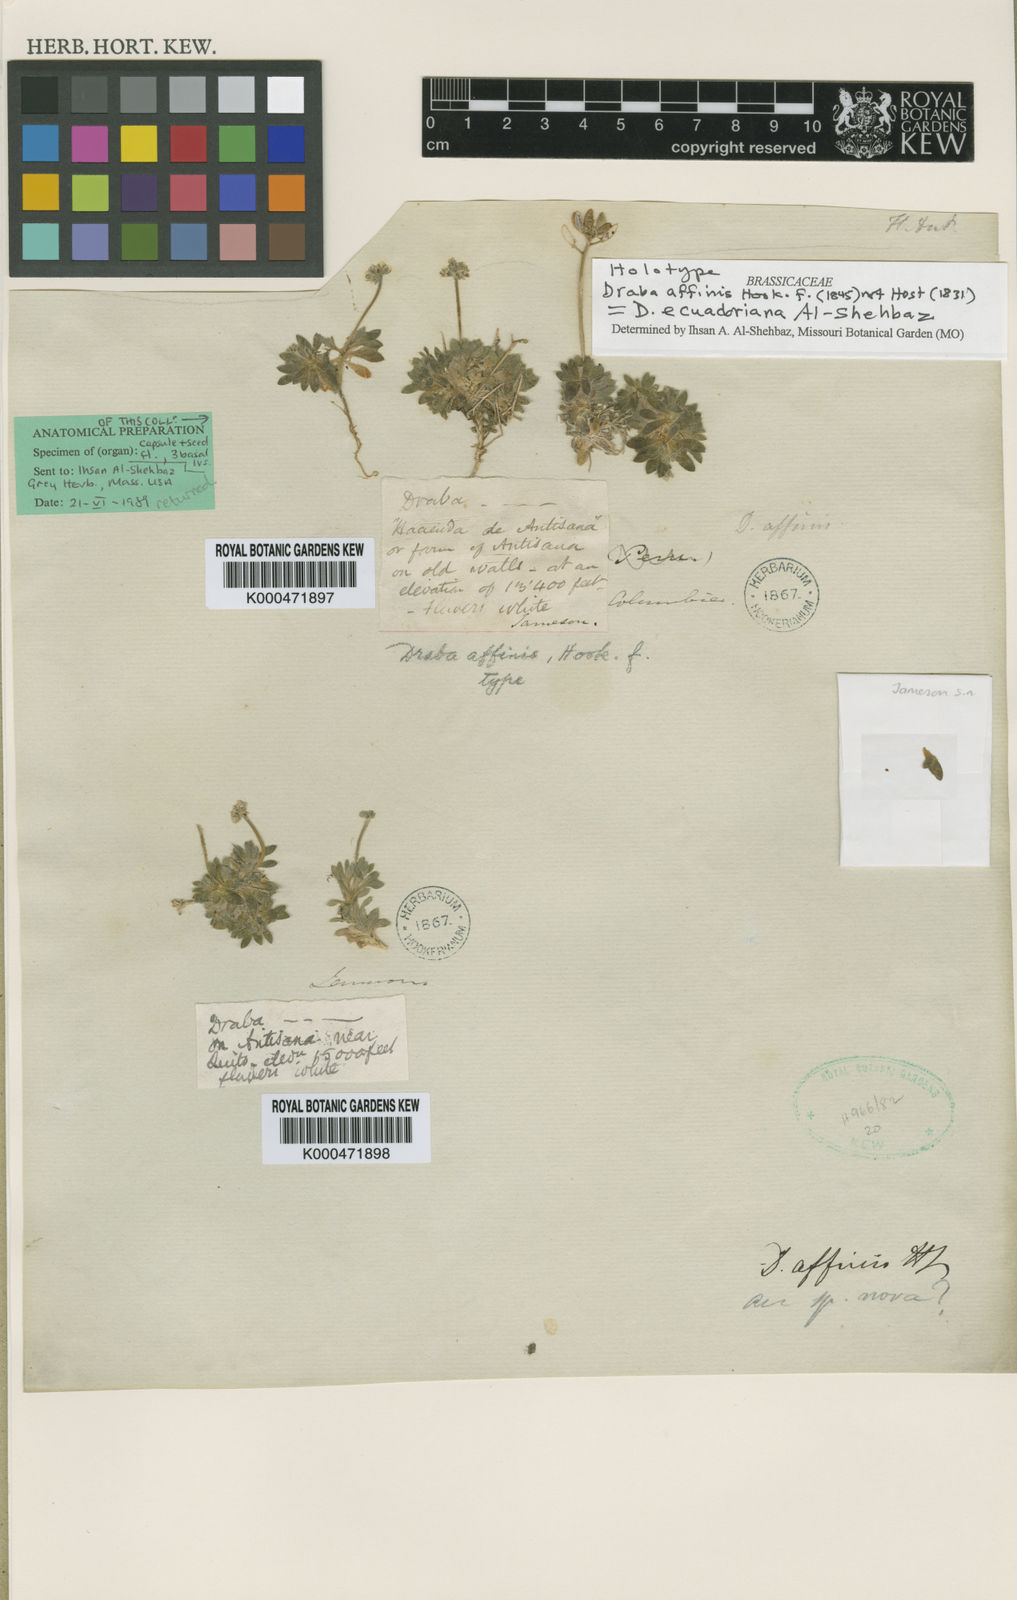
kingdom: Plantae
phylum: Tracheophyta
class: Magnoliopsida
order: Brassicales
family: Brassicaceae
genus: Draba
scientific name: Draba ecuadoriana
